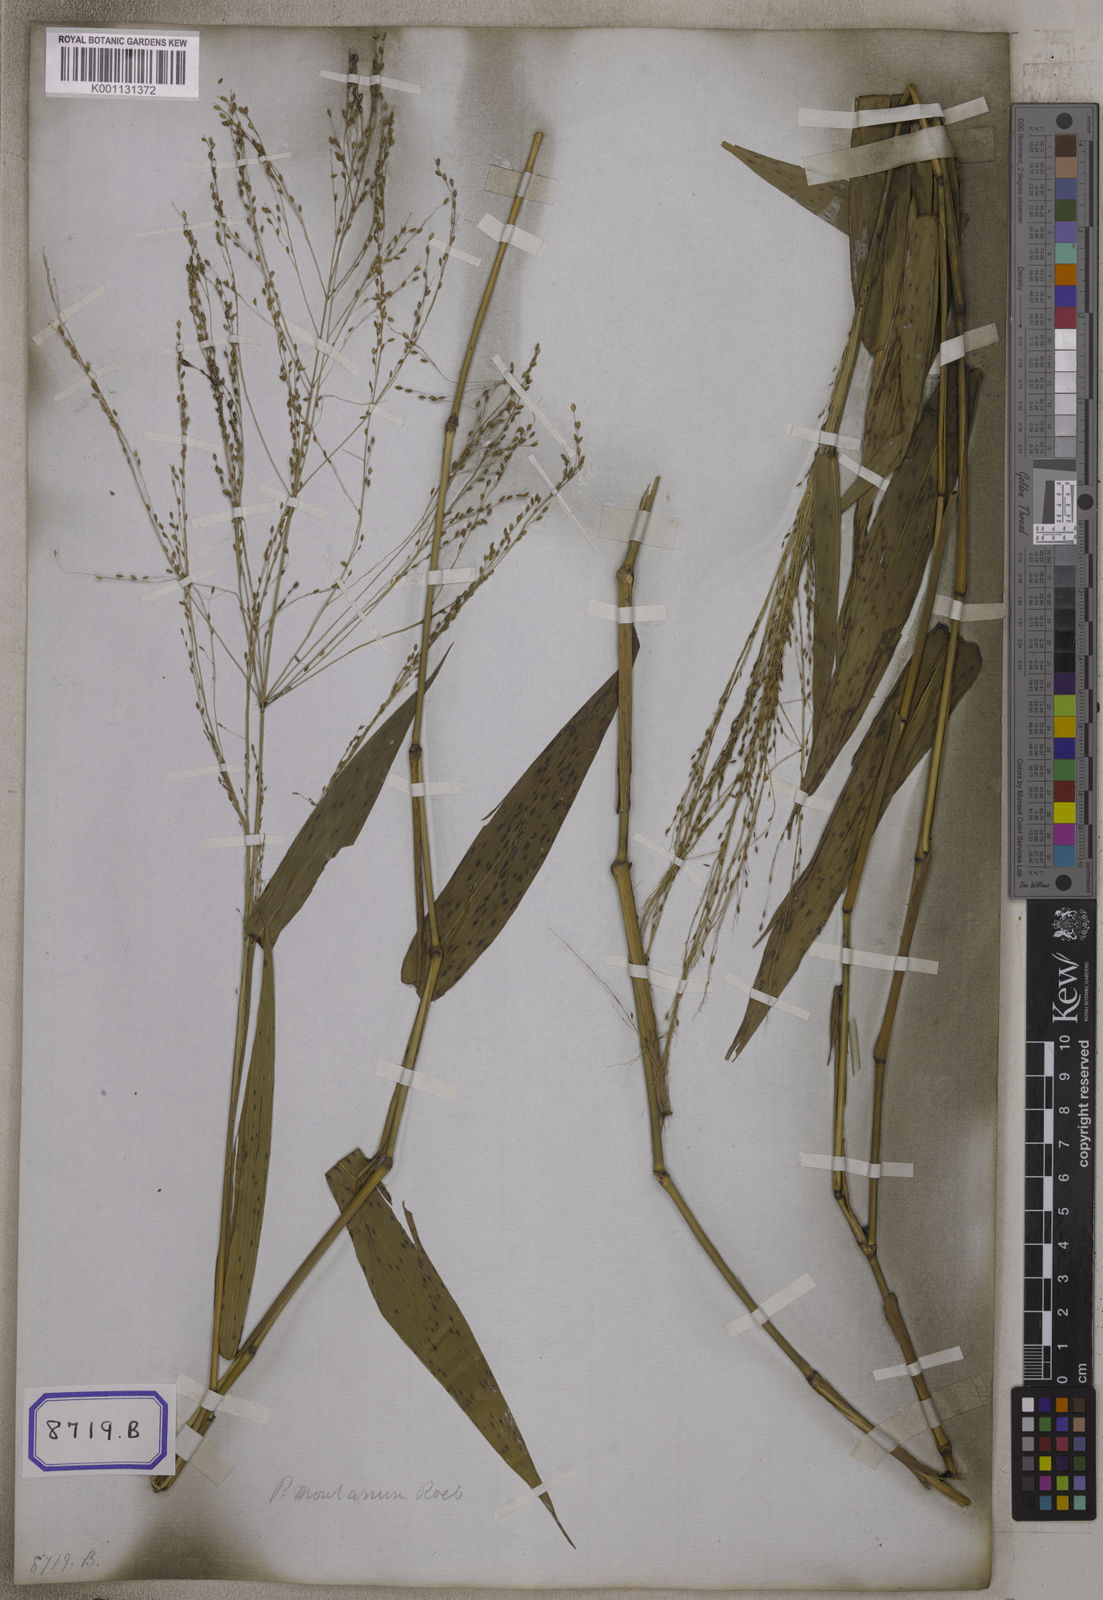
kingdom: Plantae
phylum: Tracheophyta
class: Liliopsida
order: Poales
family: Poaceae
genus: Panicum
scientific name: Panicum
